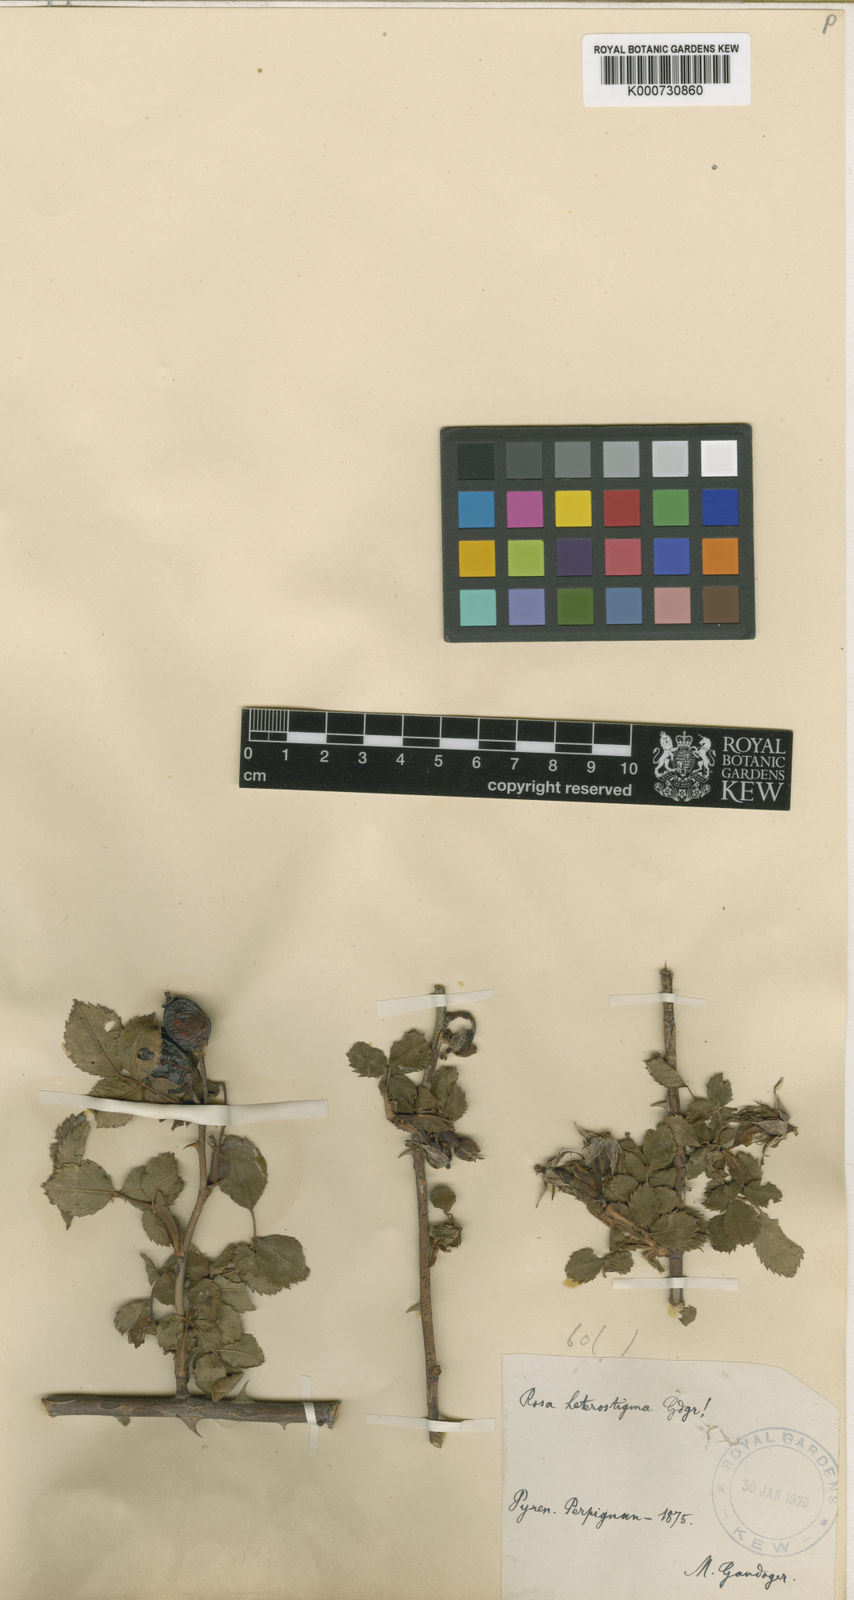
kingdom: Plantae
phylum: Tracheophyta
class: Magnoliopsida
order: Rosales
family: Rosaceae
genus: Rosa
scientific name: Rosa
